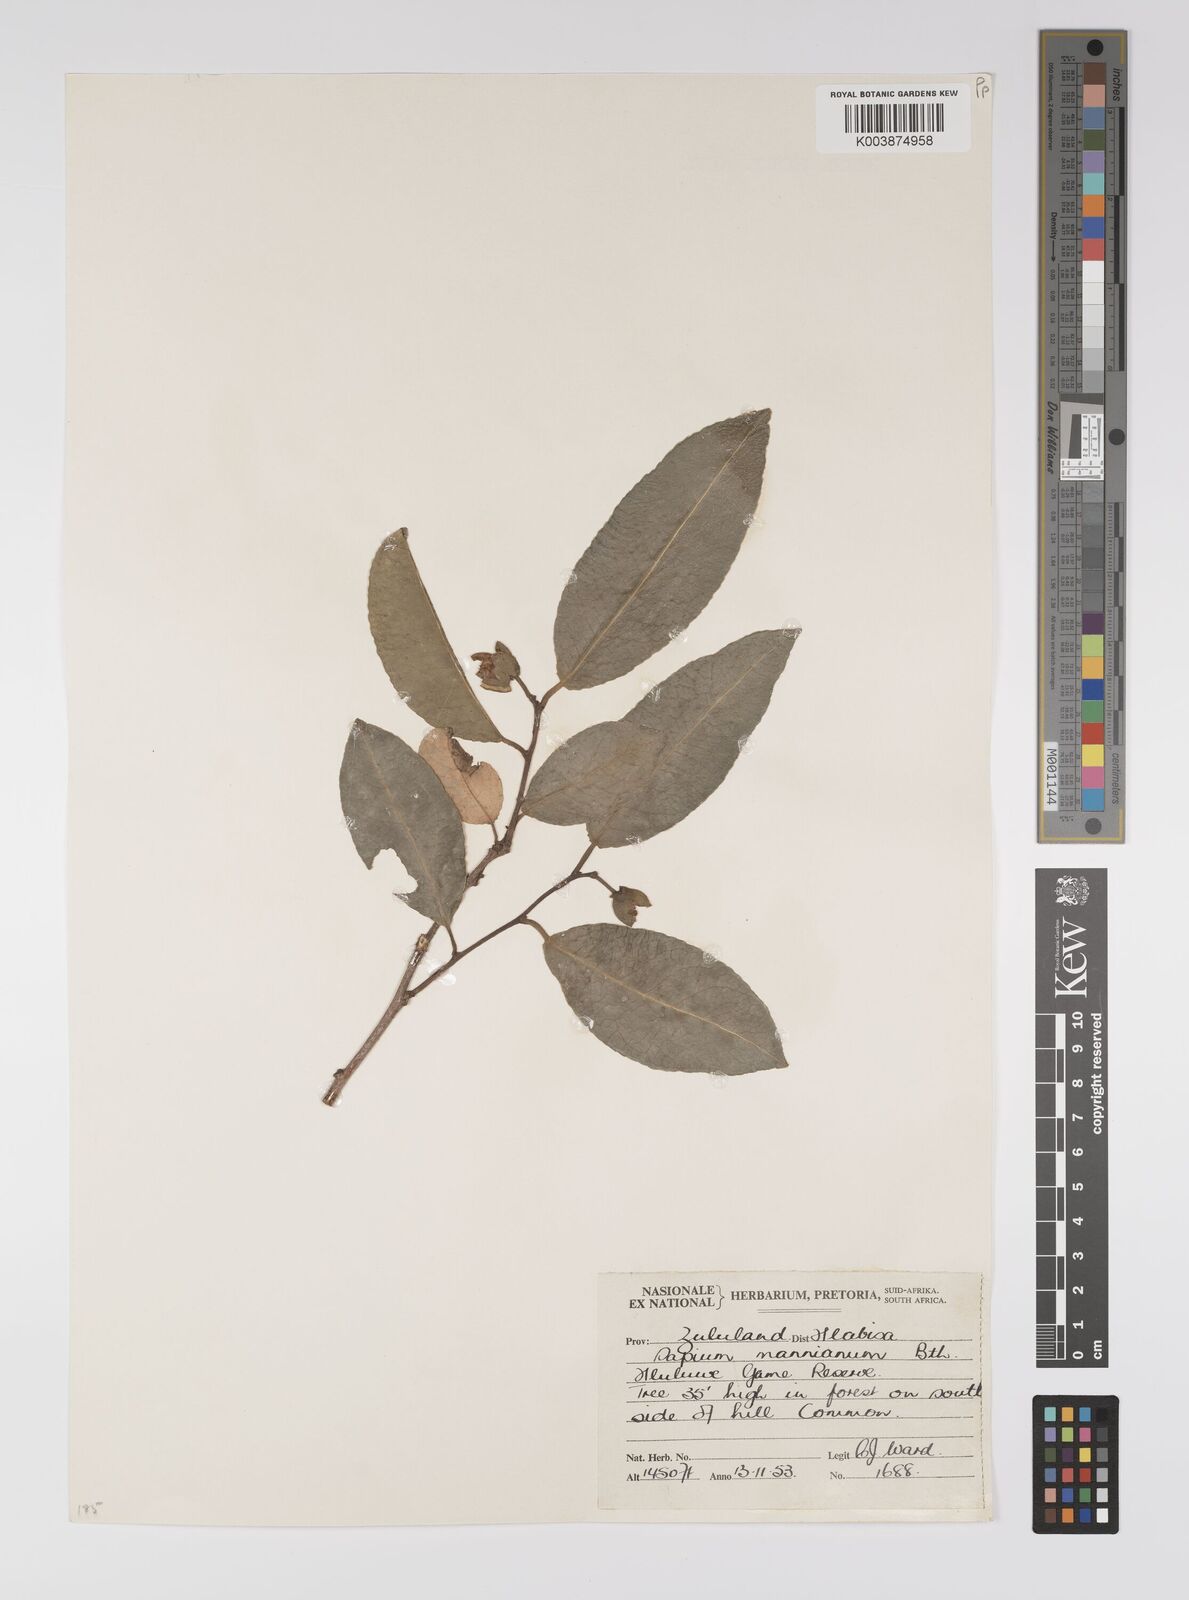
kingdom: Plantae
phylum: Tracheophyta
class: Magnoliopsida
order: Malpighiales
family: Euphorbiaceae
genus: Shirakiopsis
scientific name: Shirakiopsis elliptica
